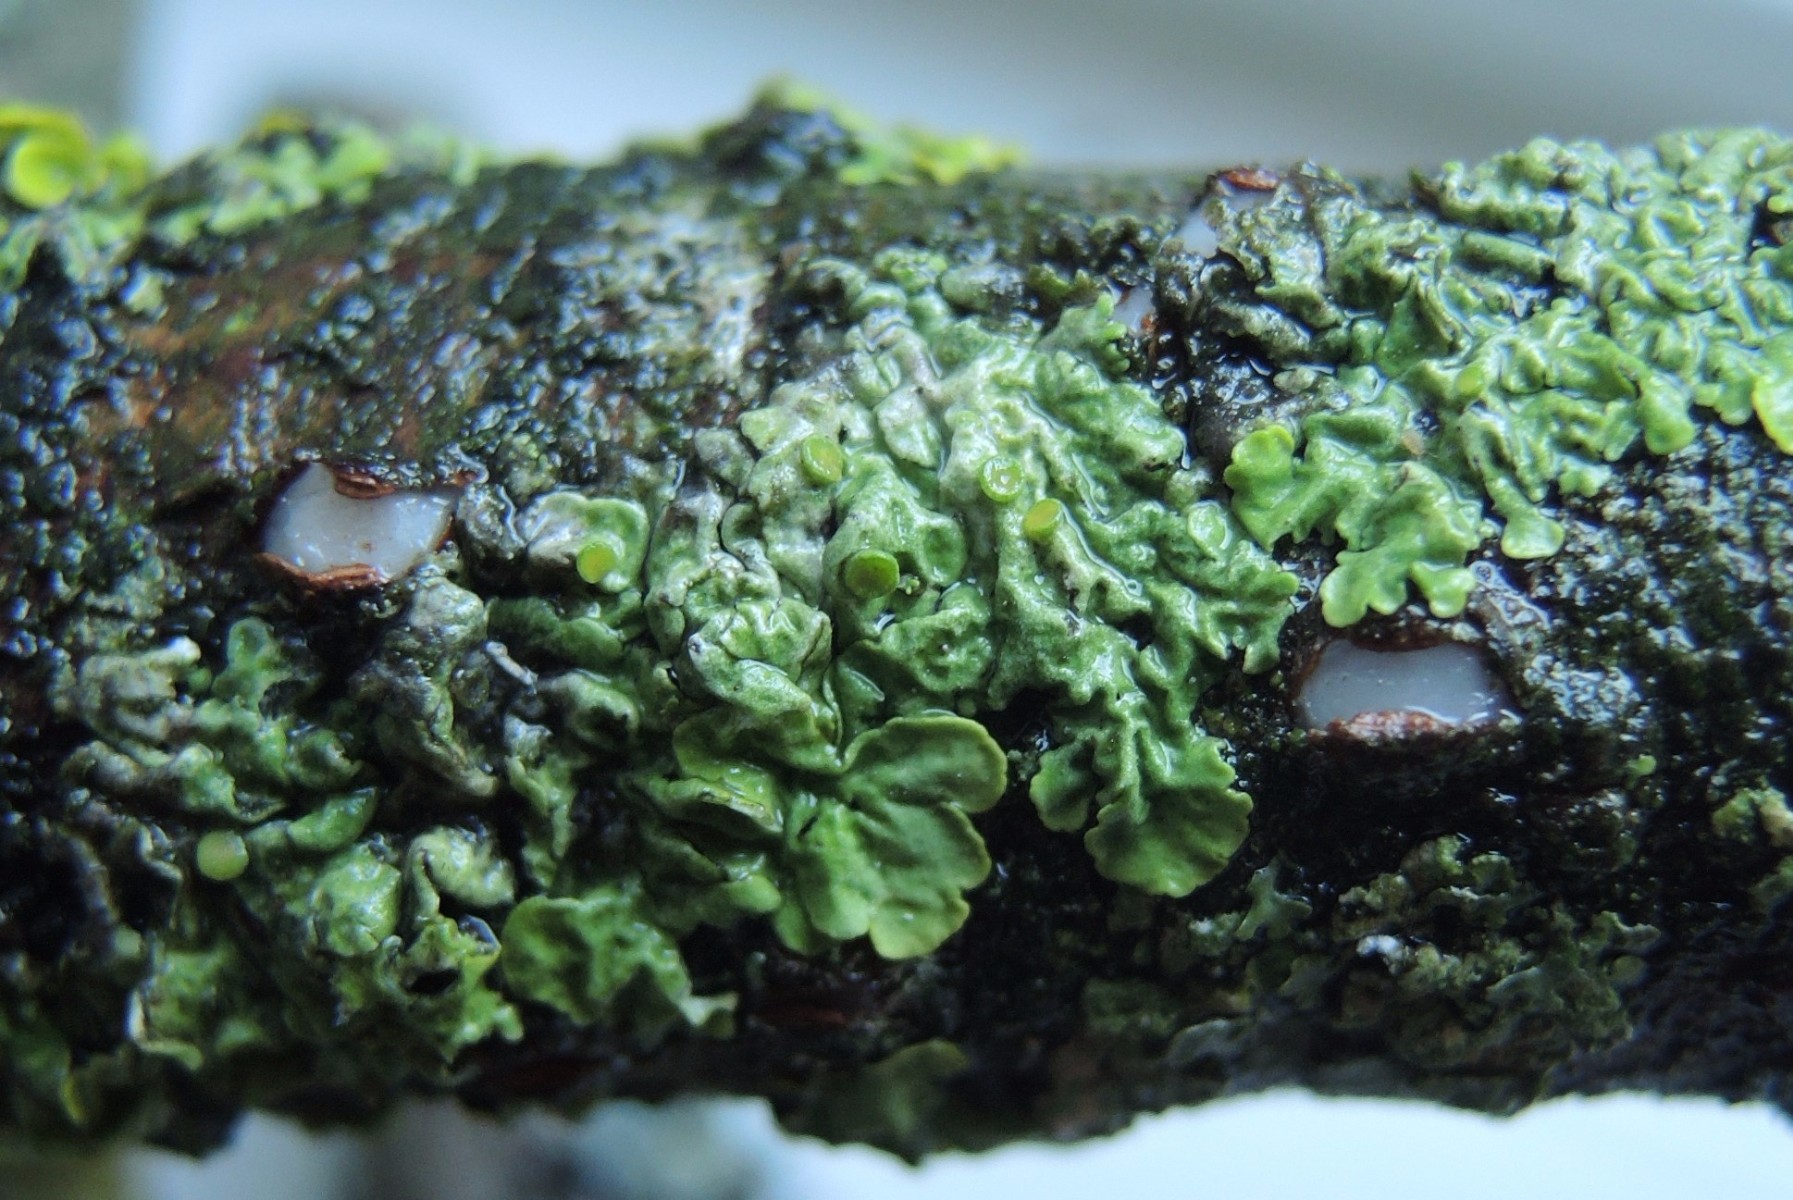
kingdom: Fungi
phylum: Basidiomycota
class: Pucciniomycetes
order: Platygloeales
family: Platygloeaceae
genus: Platygloea
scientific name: Platygloea disciformis
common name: linde-slimklat
